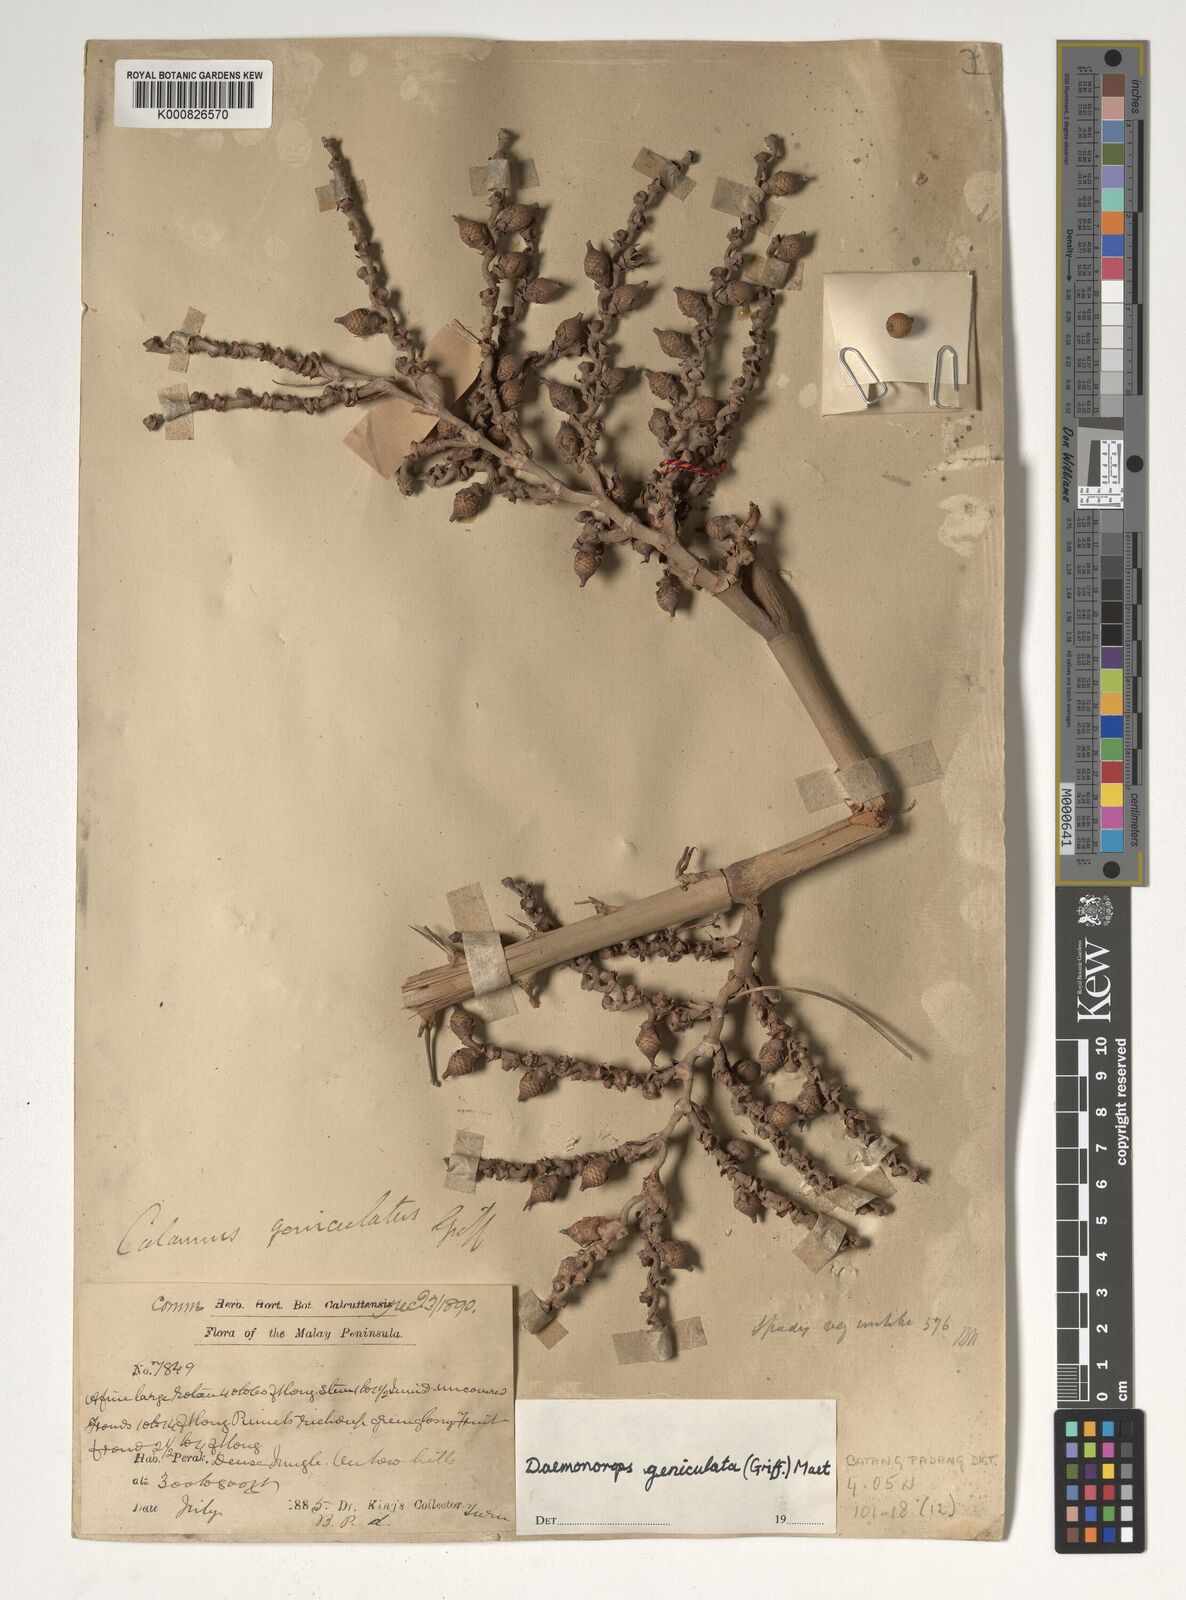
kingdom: Plantae
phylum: Tracheophyta
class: Liliopsida
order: Arecales
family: Arecaceae
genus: Calamus
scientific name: Calamus geniculatus
